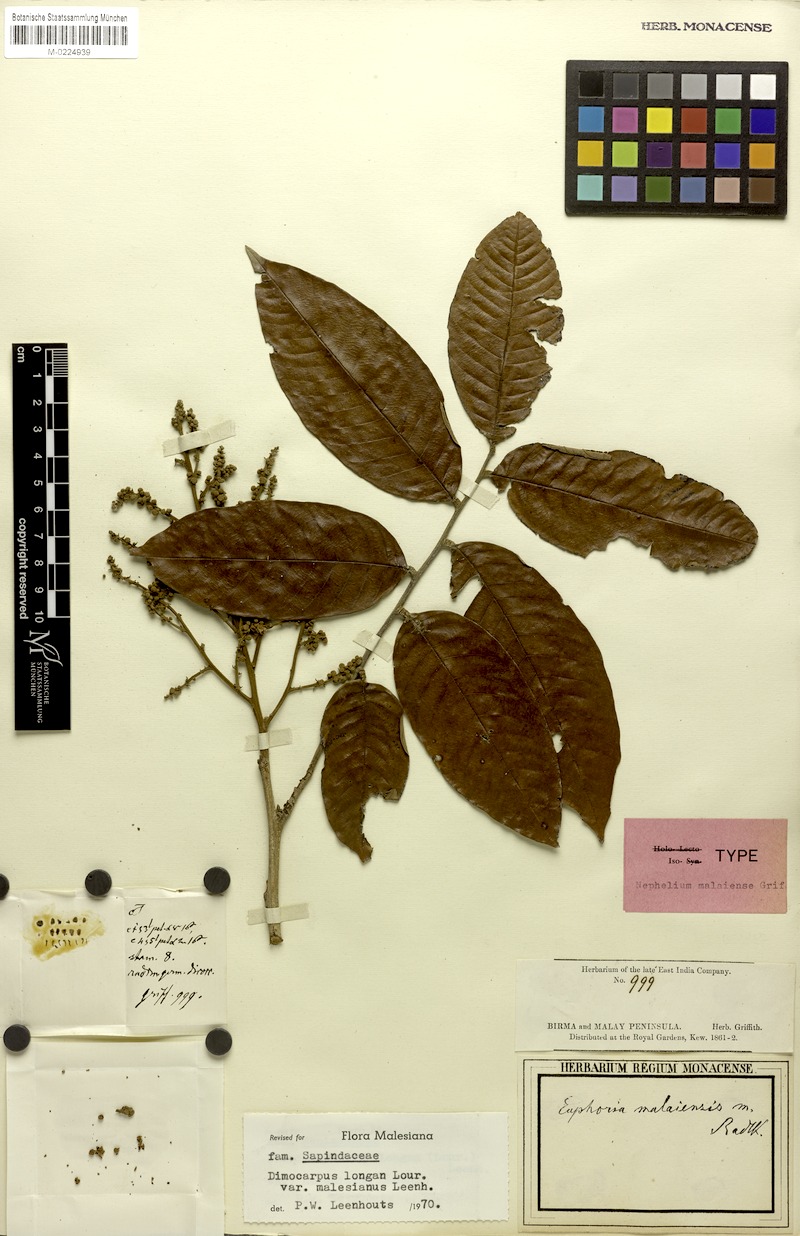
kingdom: Plantae
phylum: Tracheophyta
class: Magnoliopsida
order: Sapindales
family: Sapindaceae
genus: Dimocarpus
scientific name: Dimocarpus malesianus
